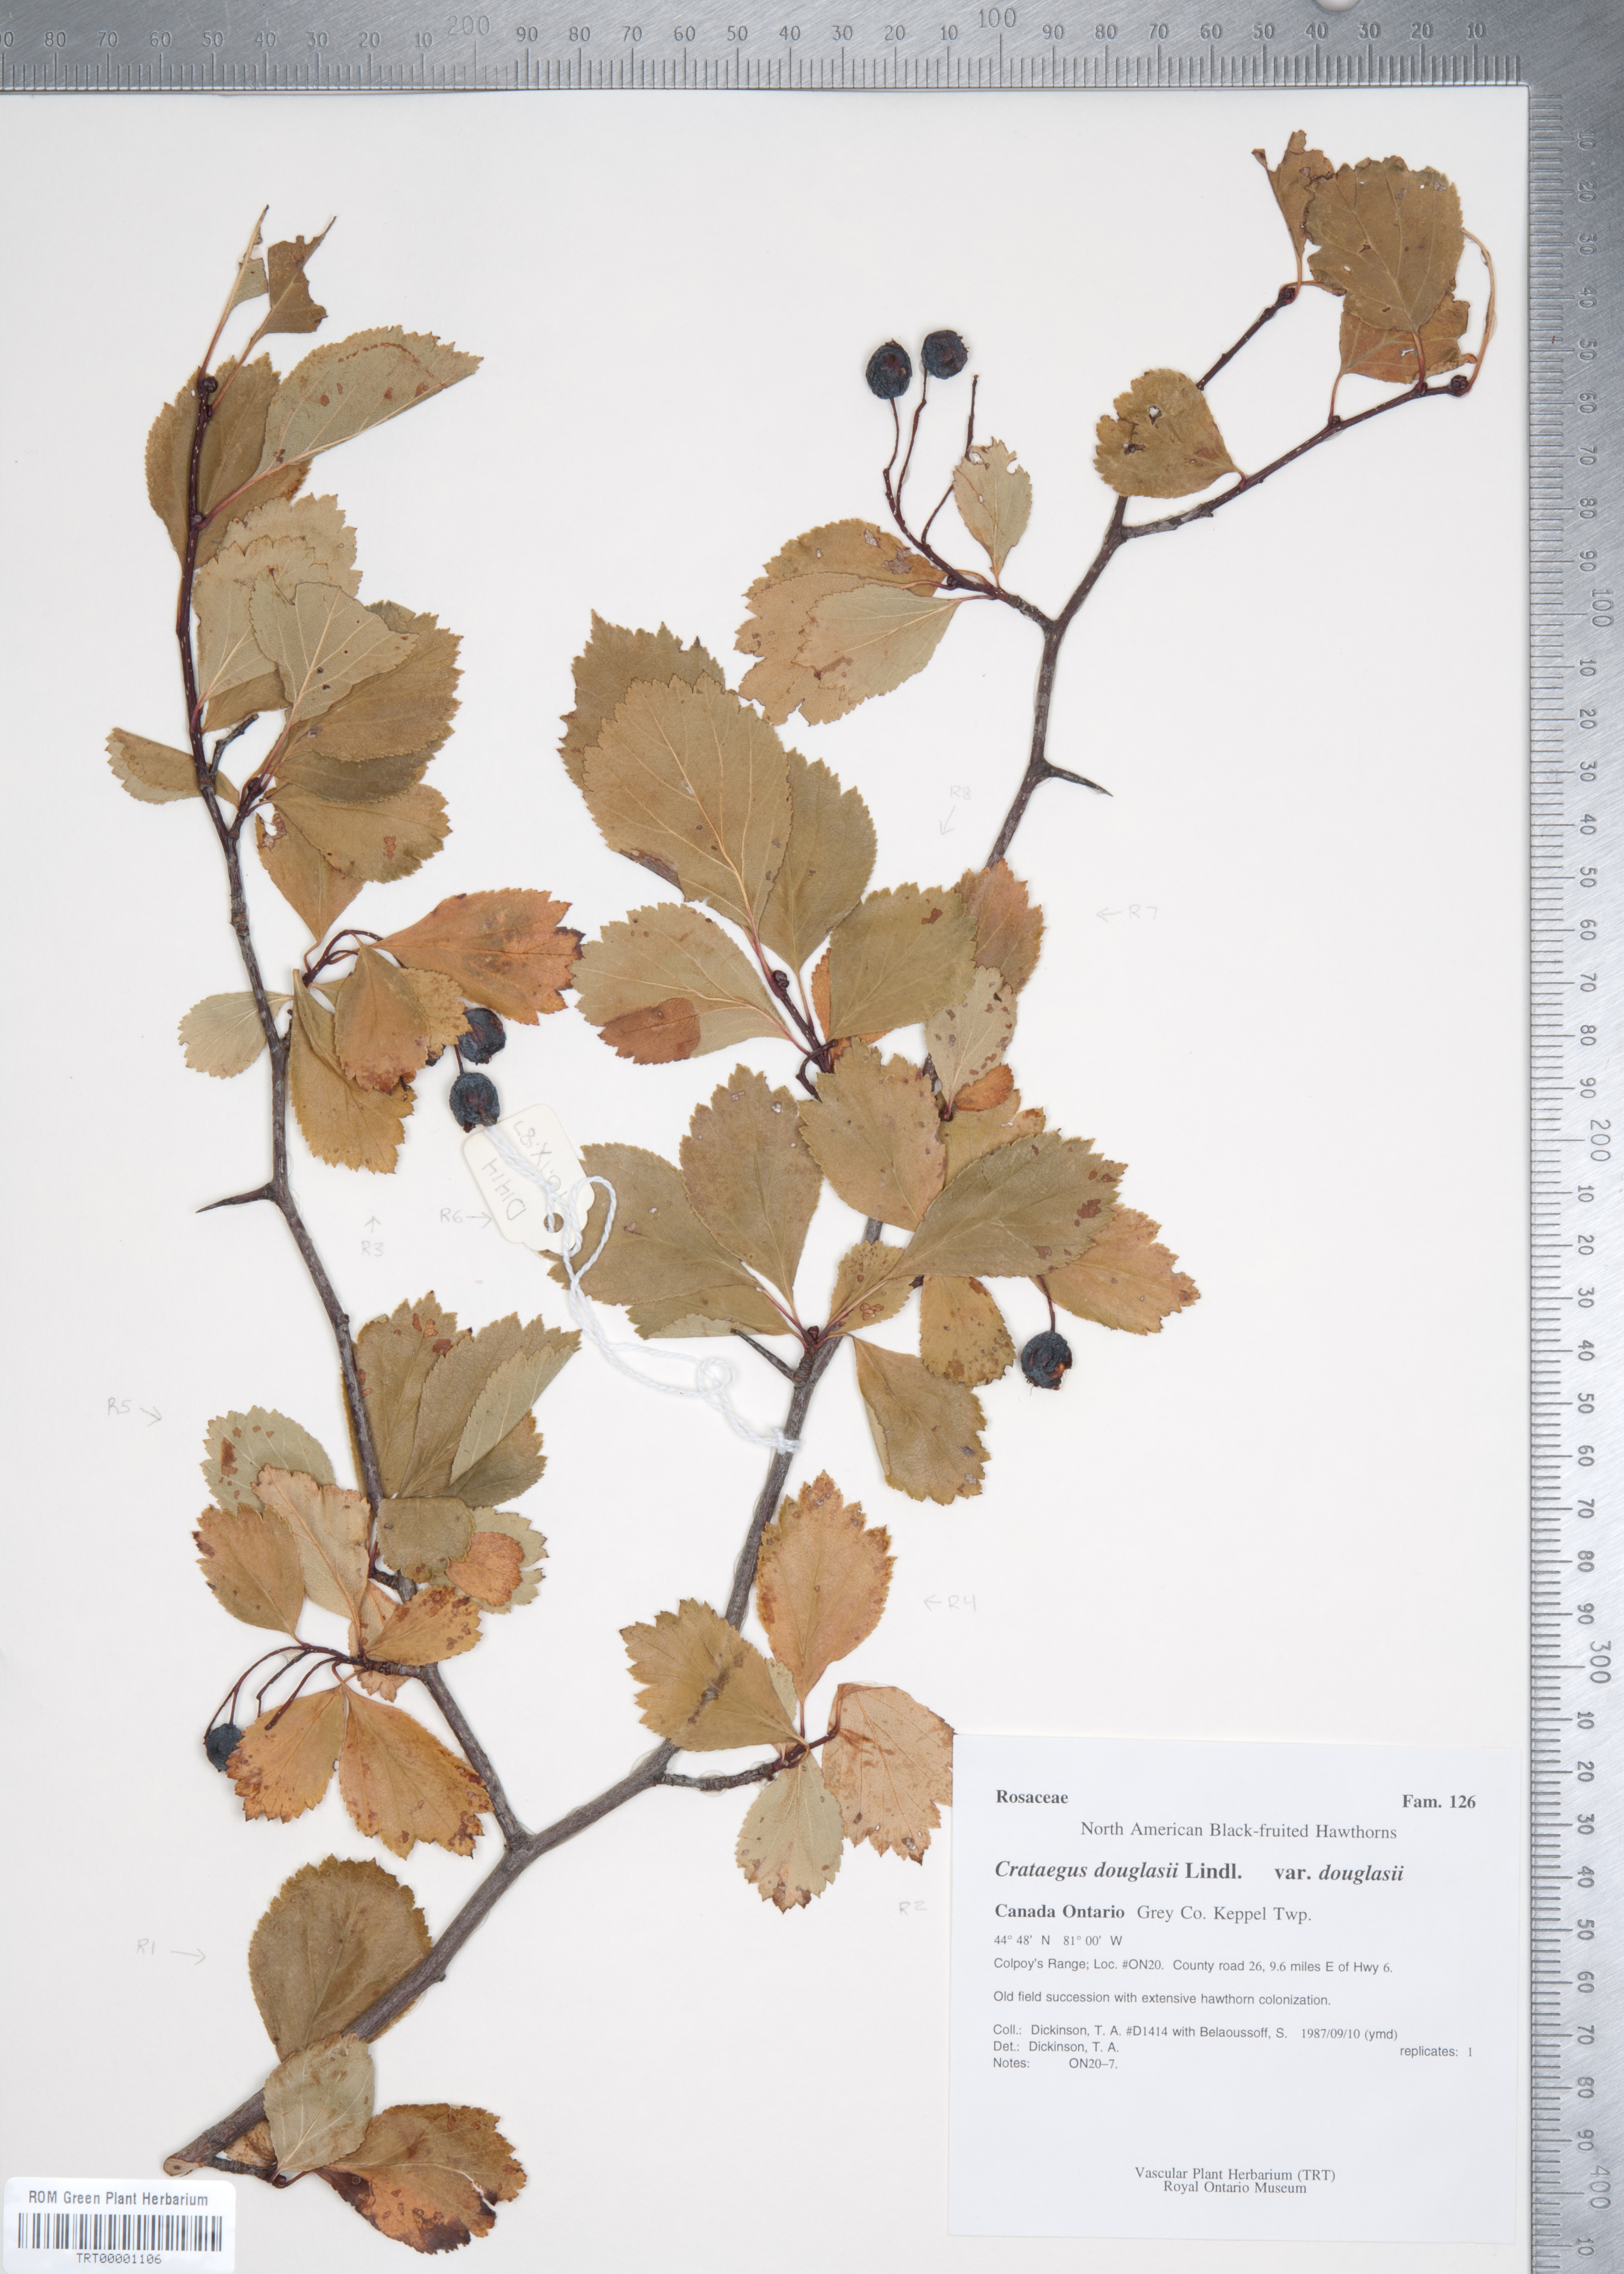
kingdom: Plantae
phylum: Tracheophyta
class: Magnoliopsida
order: Rosales
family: Rosaceae
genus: Crataegus
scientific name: Crataegus douglasii
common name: Black hawthorn
